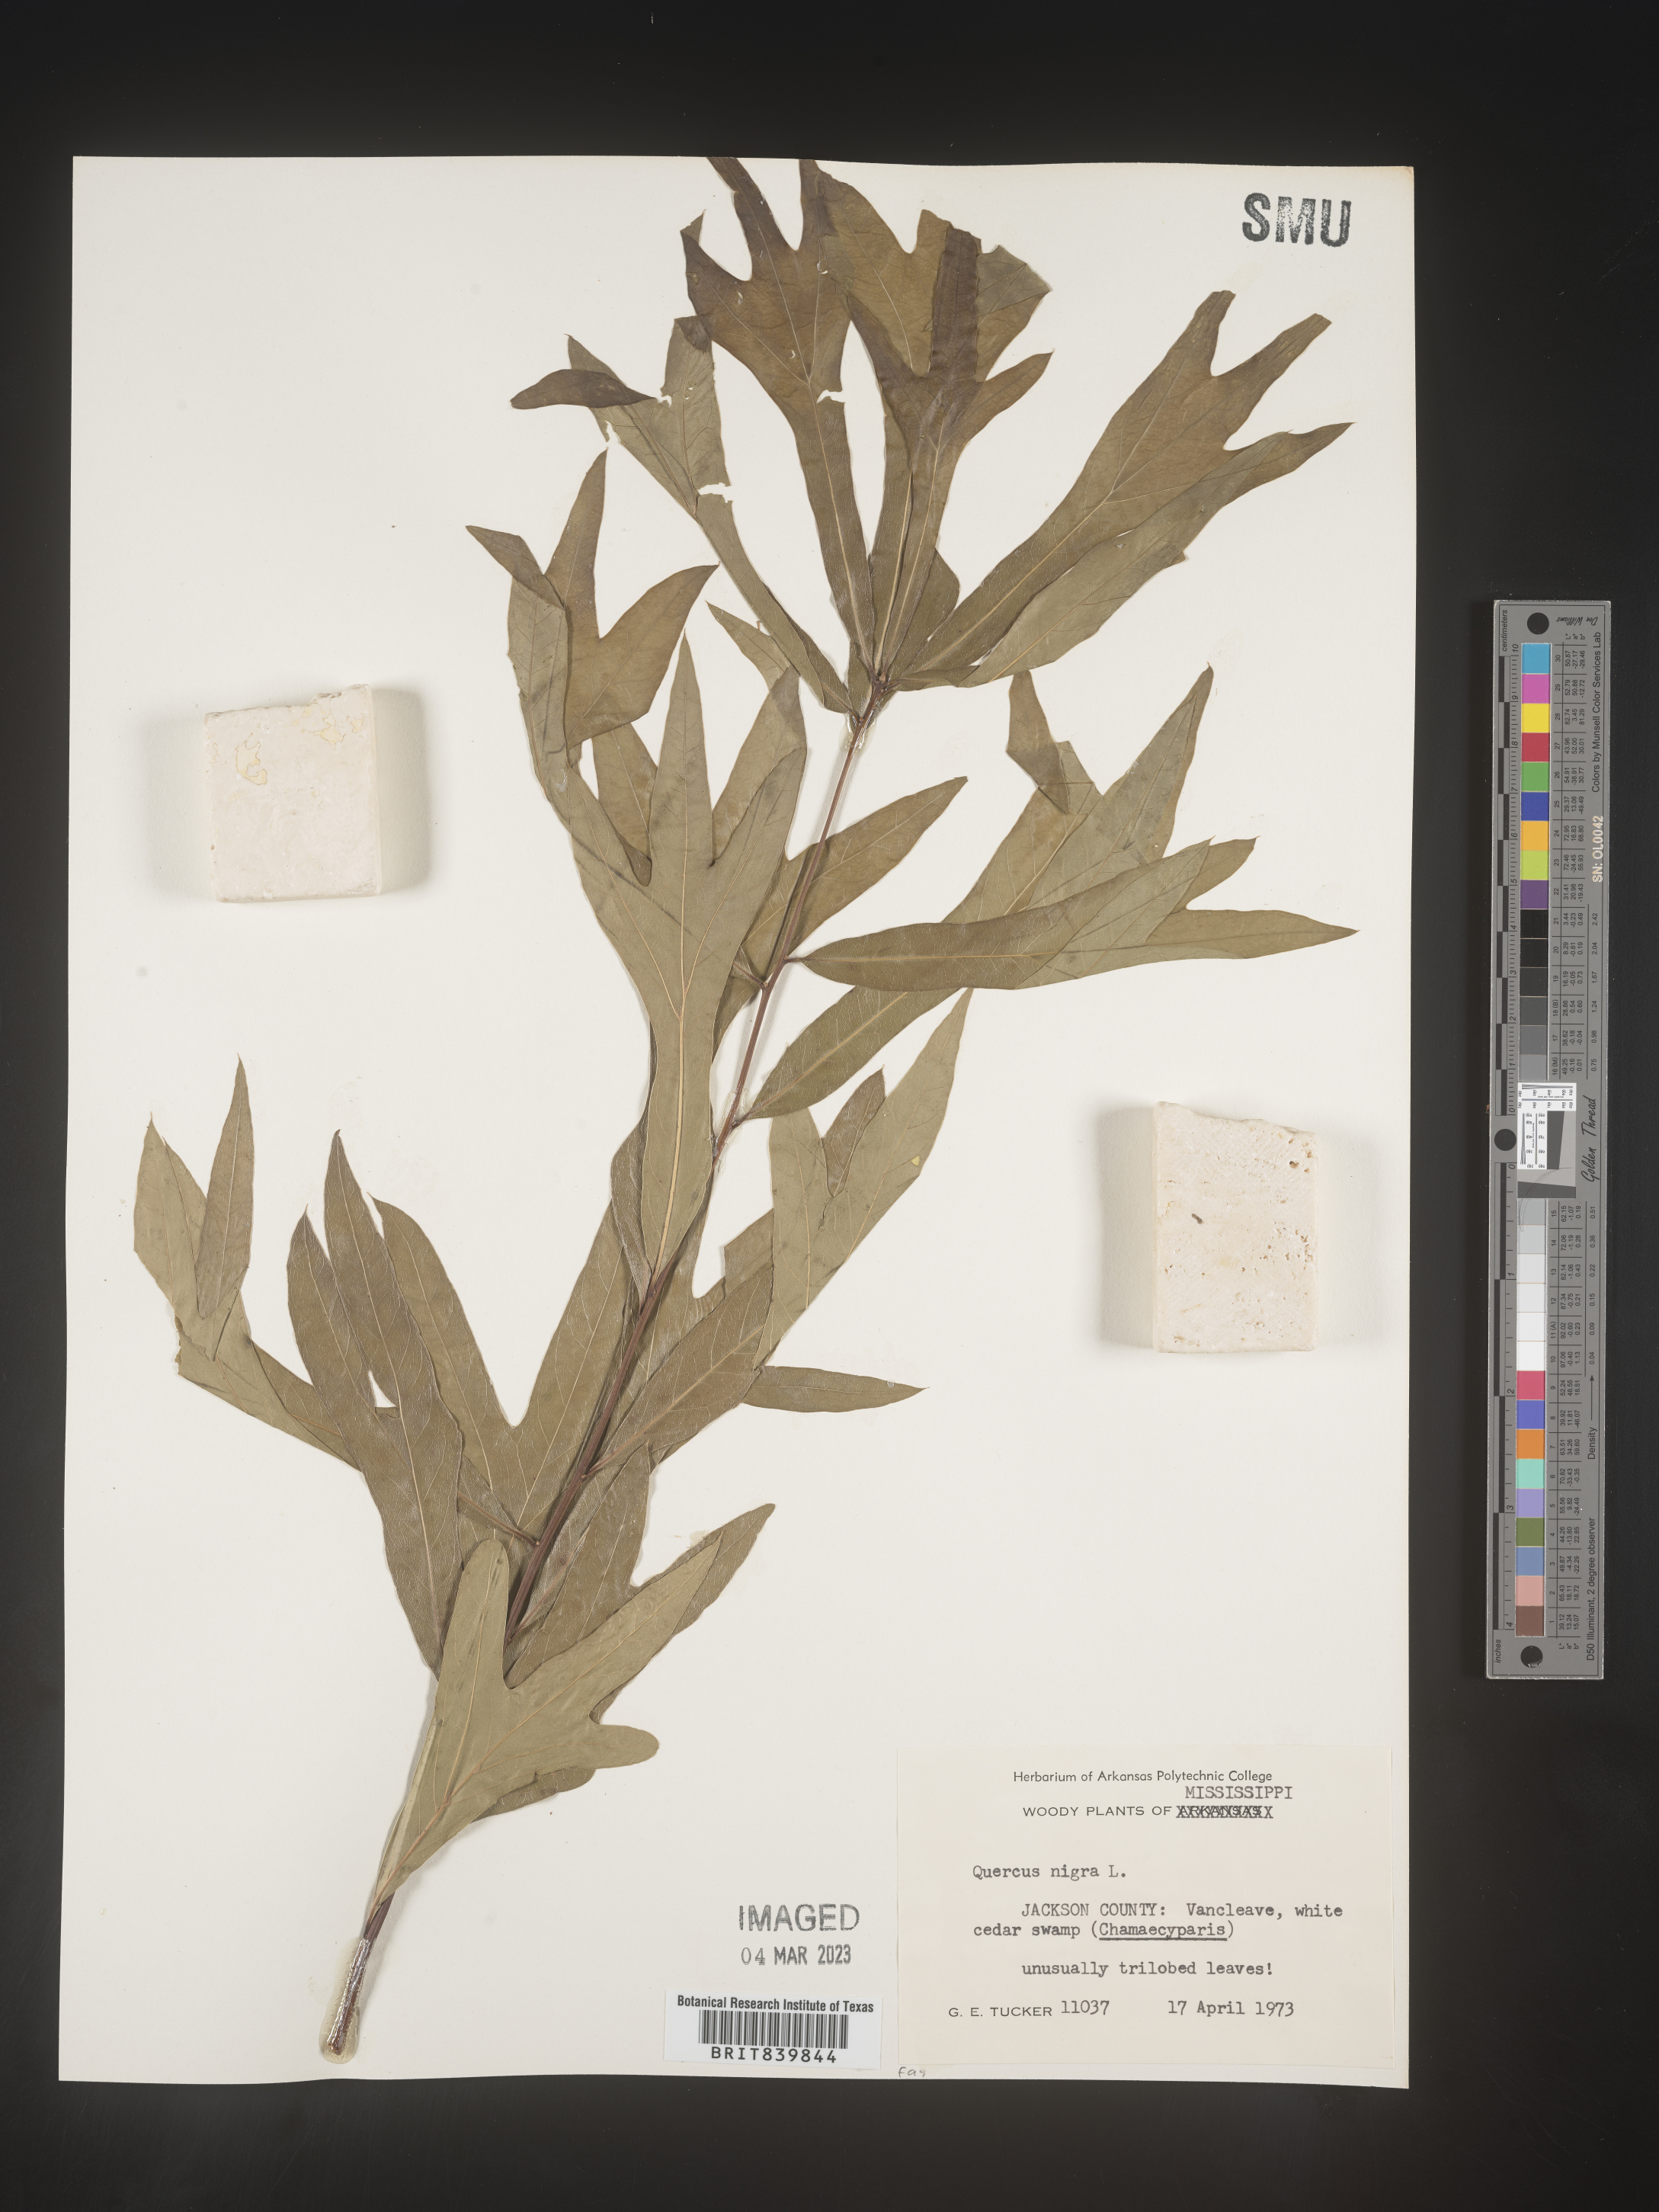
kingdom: Plantae
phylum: Tracheophyta
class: Magnoliopsida
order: Fagales
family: Fagaceae
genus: Quercus
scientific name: Quercus nigra
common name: Water oak
